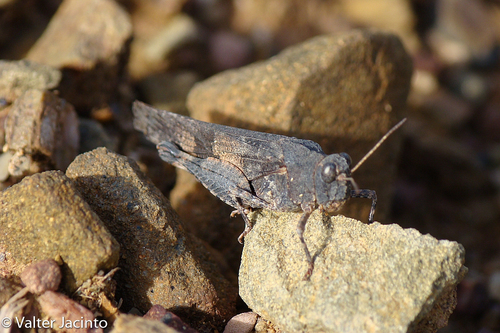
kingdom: Animalia
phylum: Arthropoda
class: Insecta
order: Orthoptera
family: Acrididae
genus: Oedipoda
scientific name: Oedipoda caerulescens
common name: Blue-winged grasshopper
